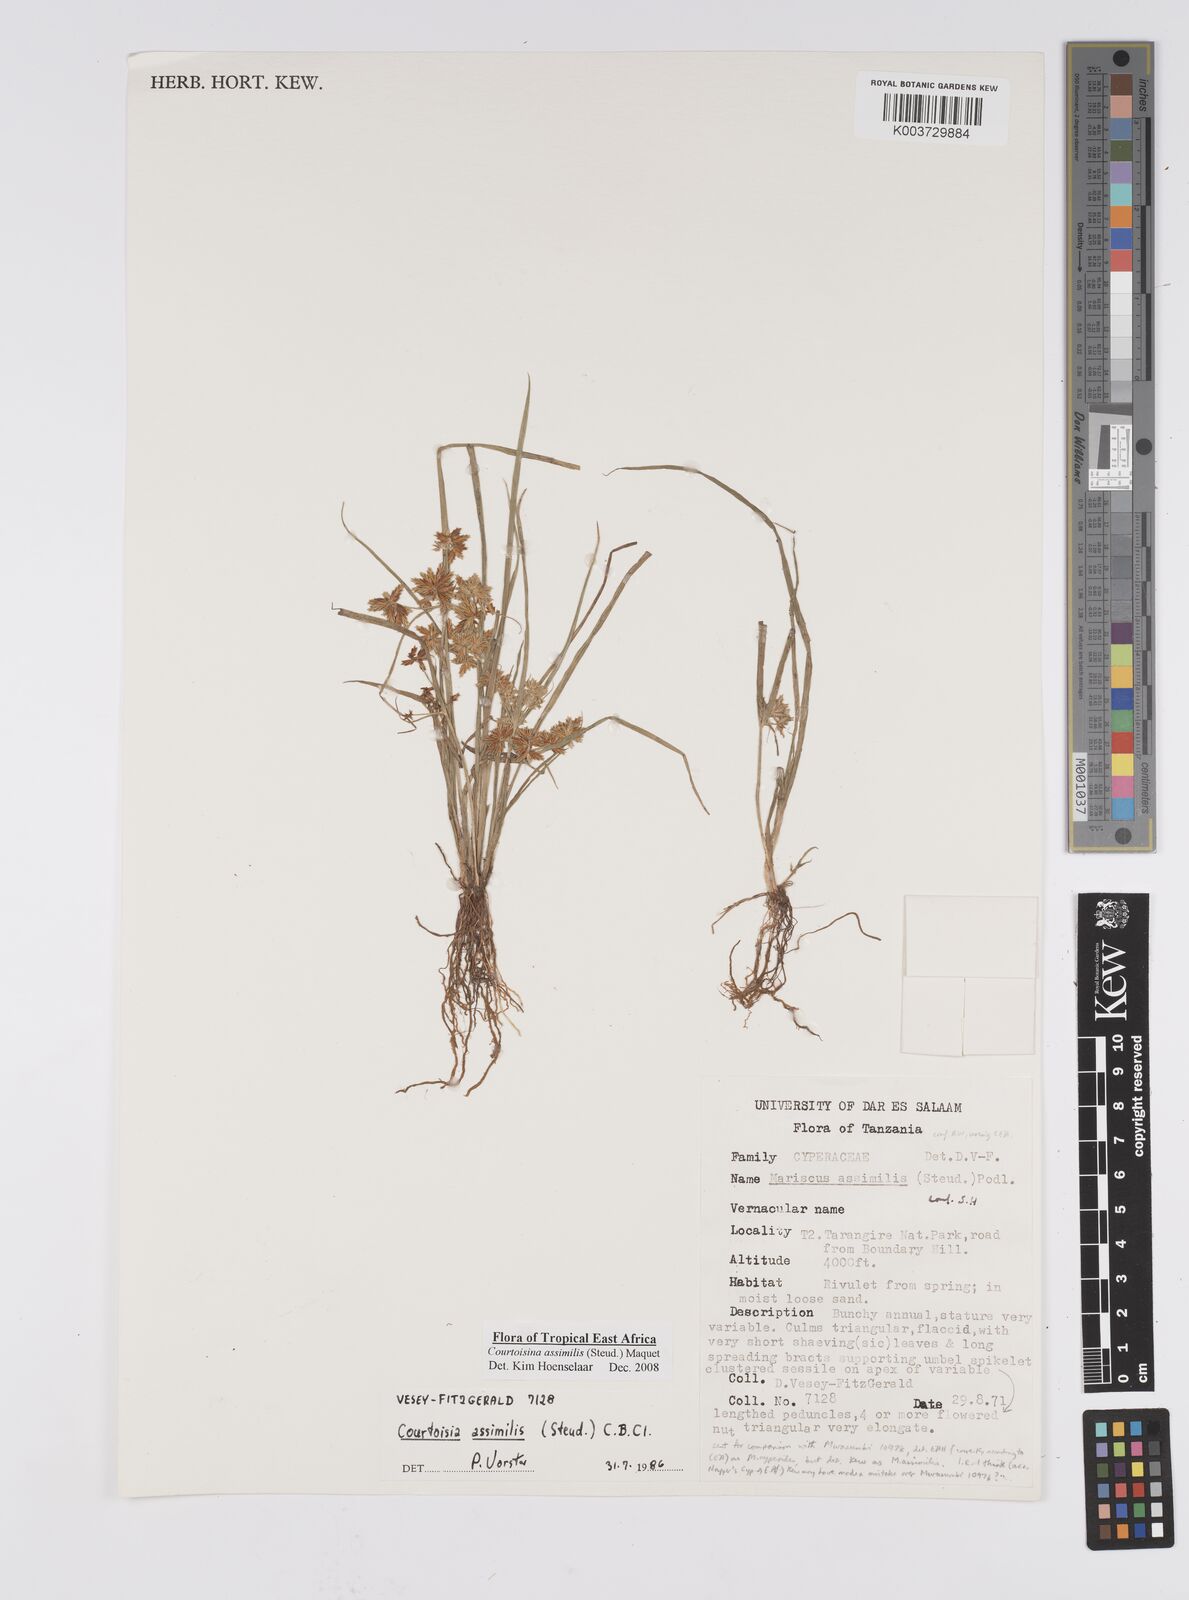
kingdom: Plantae
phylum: Tracheophyta
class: Liliopsida
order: Poales
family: Cyperaceae
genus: Cyperus
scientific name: Cyperus assimilis
